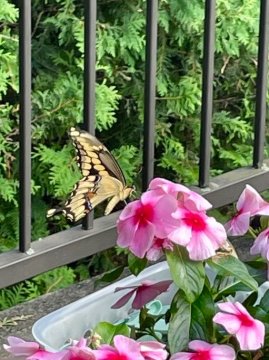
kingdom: Animalia
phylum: Arthropoda
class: Insecta
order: Lepidoptera
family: Papilionidae
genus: Papilio
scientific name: Papilio cresphontes
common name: Eastern Giant Swallowtail
